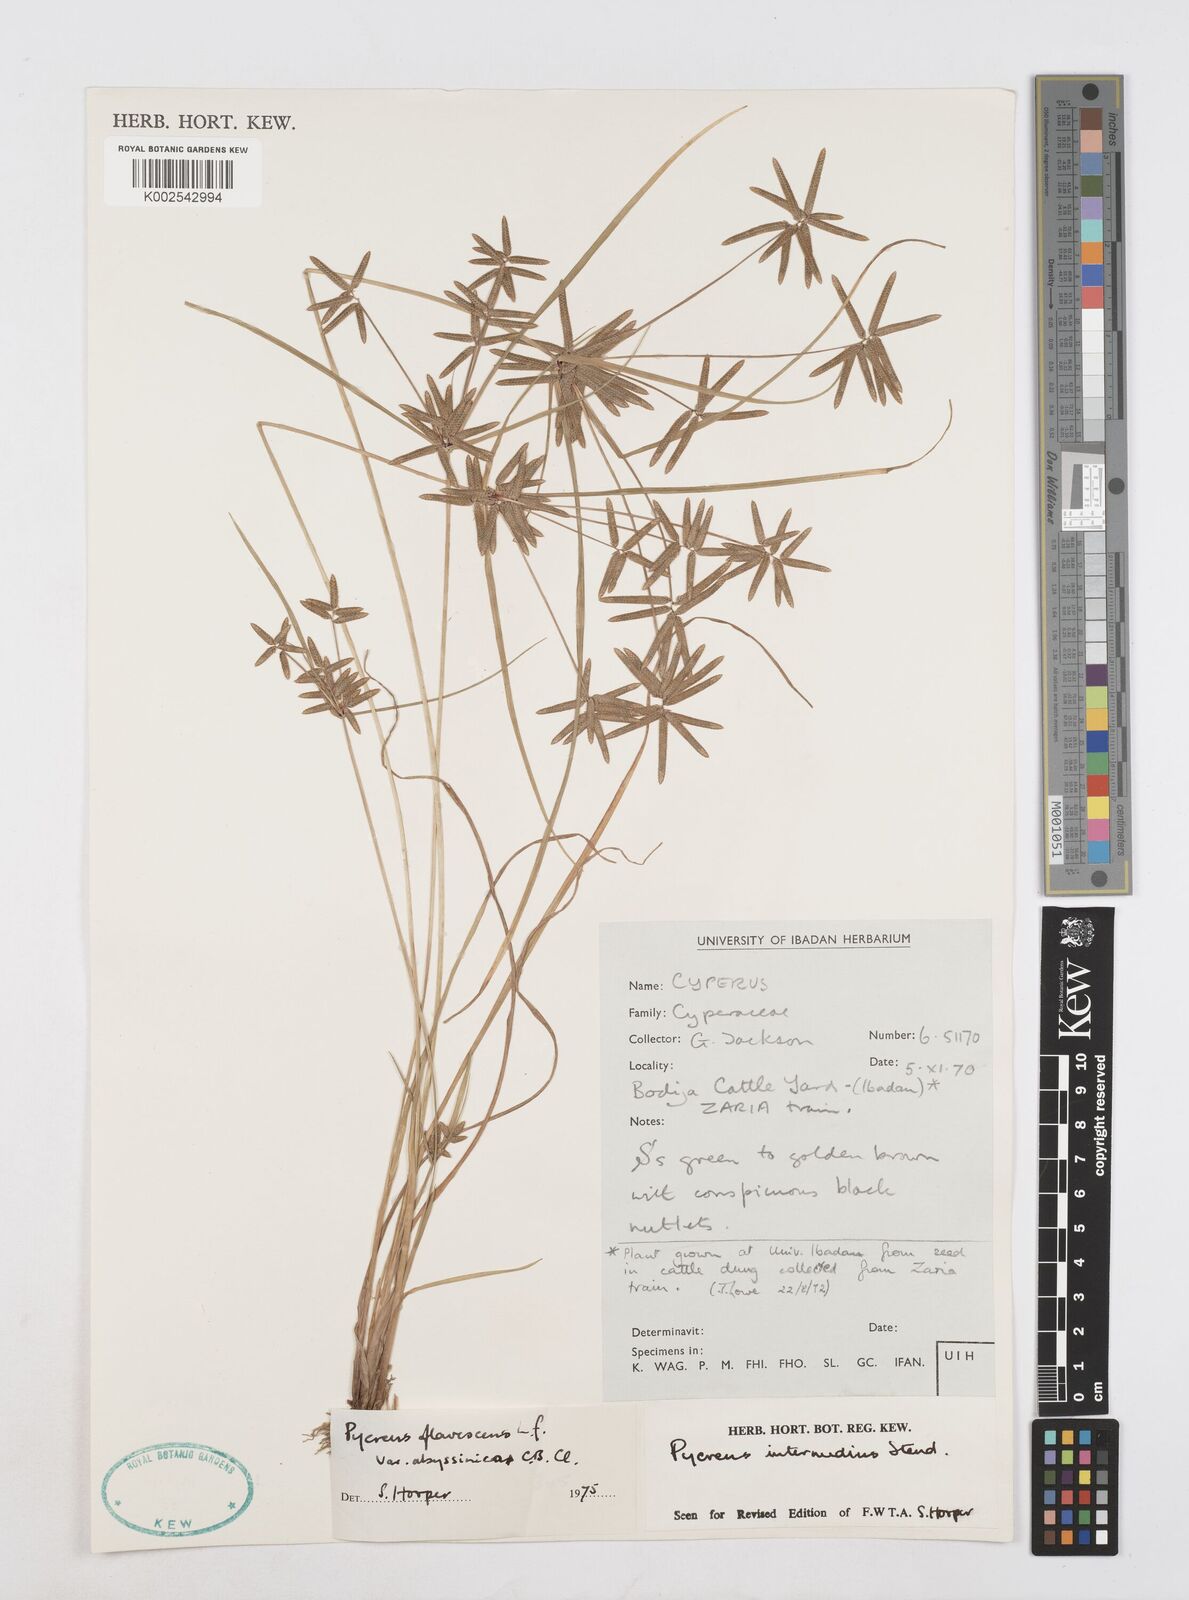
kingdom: Plantae
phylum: Tracheophyta
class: Liliopsida
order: Poales
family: Cyperaceae
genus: Cyperus
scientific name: Cyperus flavescens
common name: Yellow galingale
